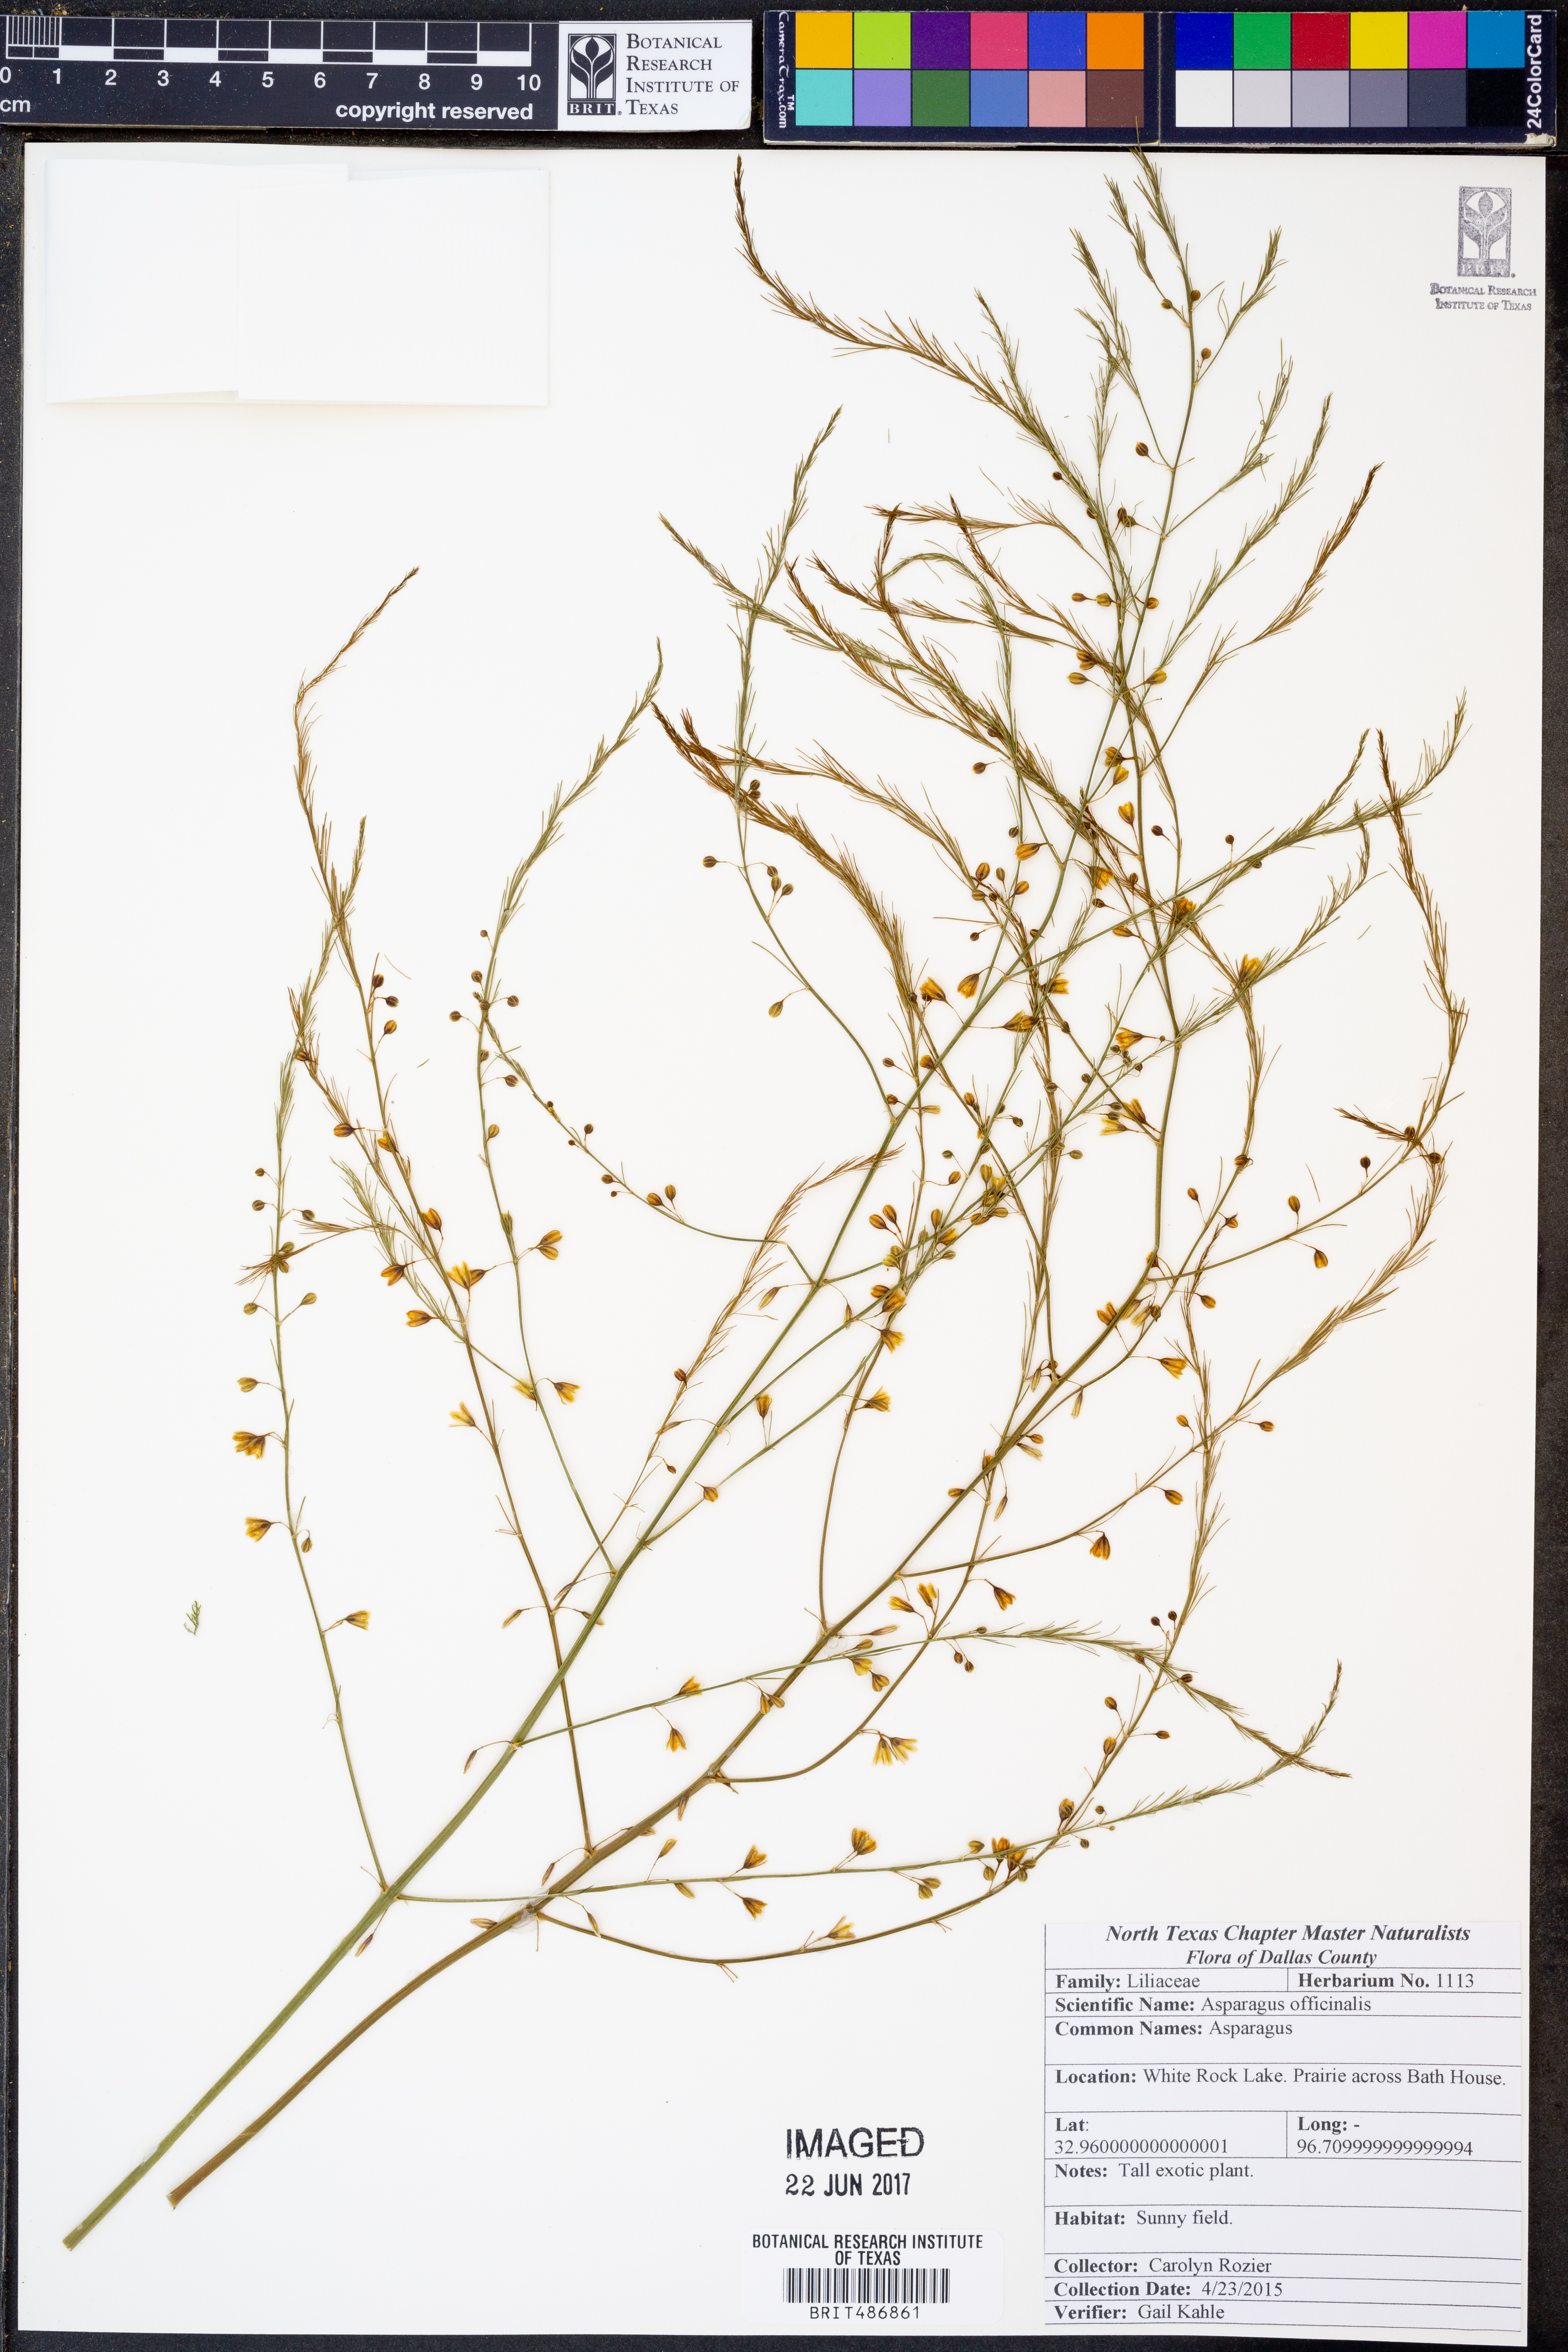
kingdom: Plantae
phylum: Tracheophyta
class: Liliopsida
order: Asparagales
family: Asparagaceae
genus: Asparagus
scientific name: Asparagus officinalis
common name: Garden asparagus
